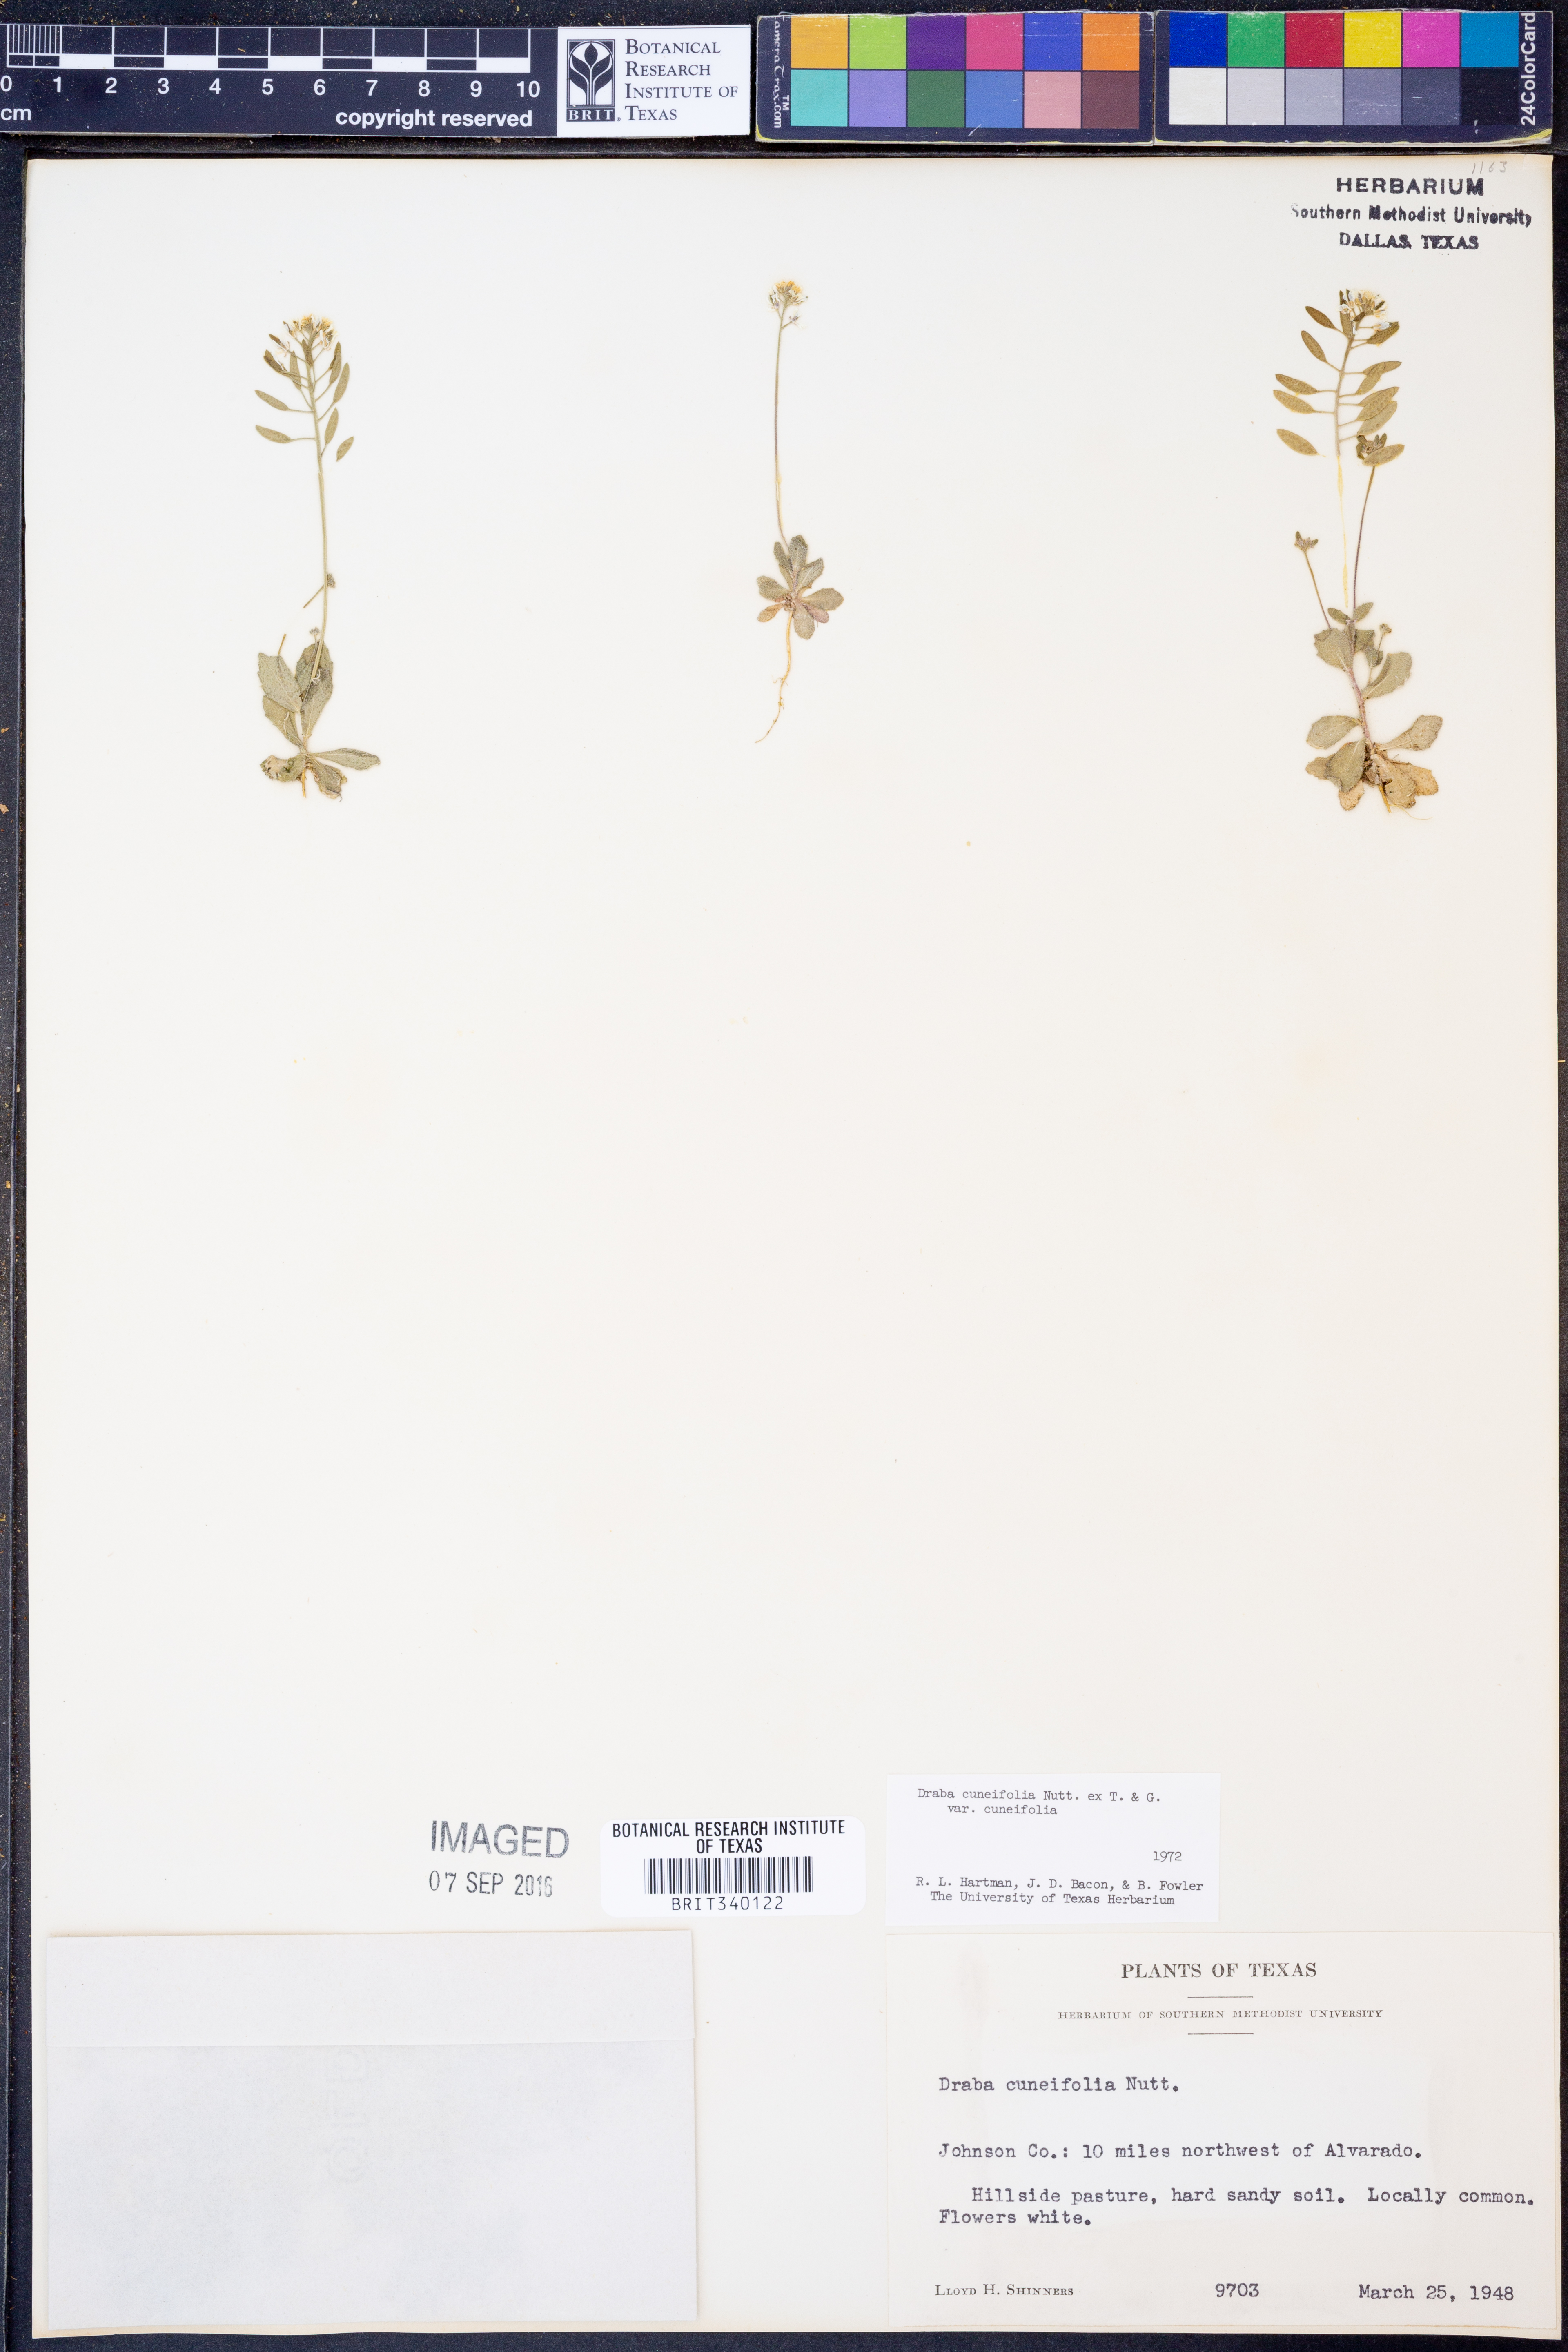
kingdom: Plantae
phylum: Tracheophyta
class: Magnoliopsida
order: Brassicales
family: Brassicaceae
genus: Tomostima
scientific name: Tomostima cuneifolia
